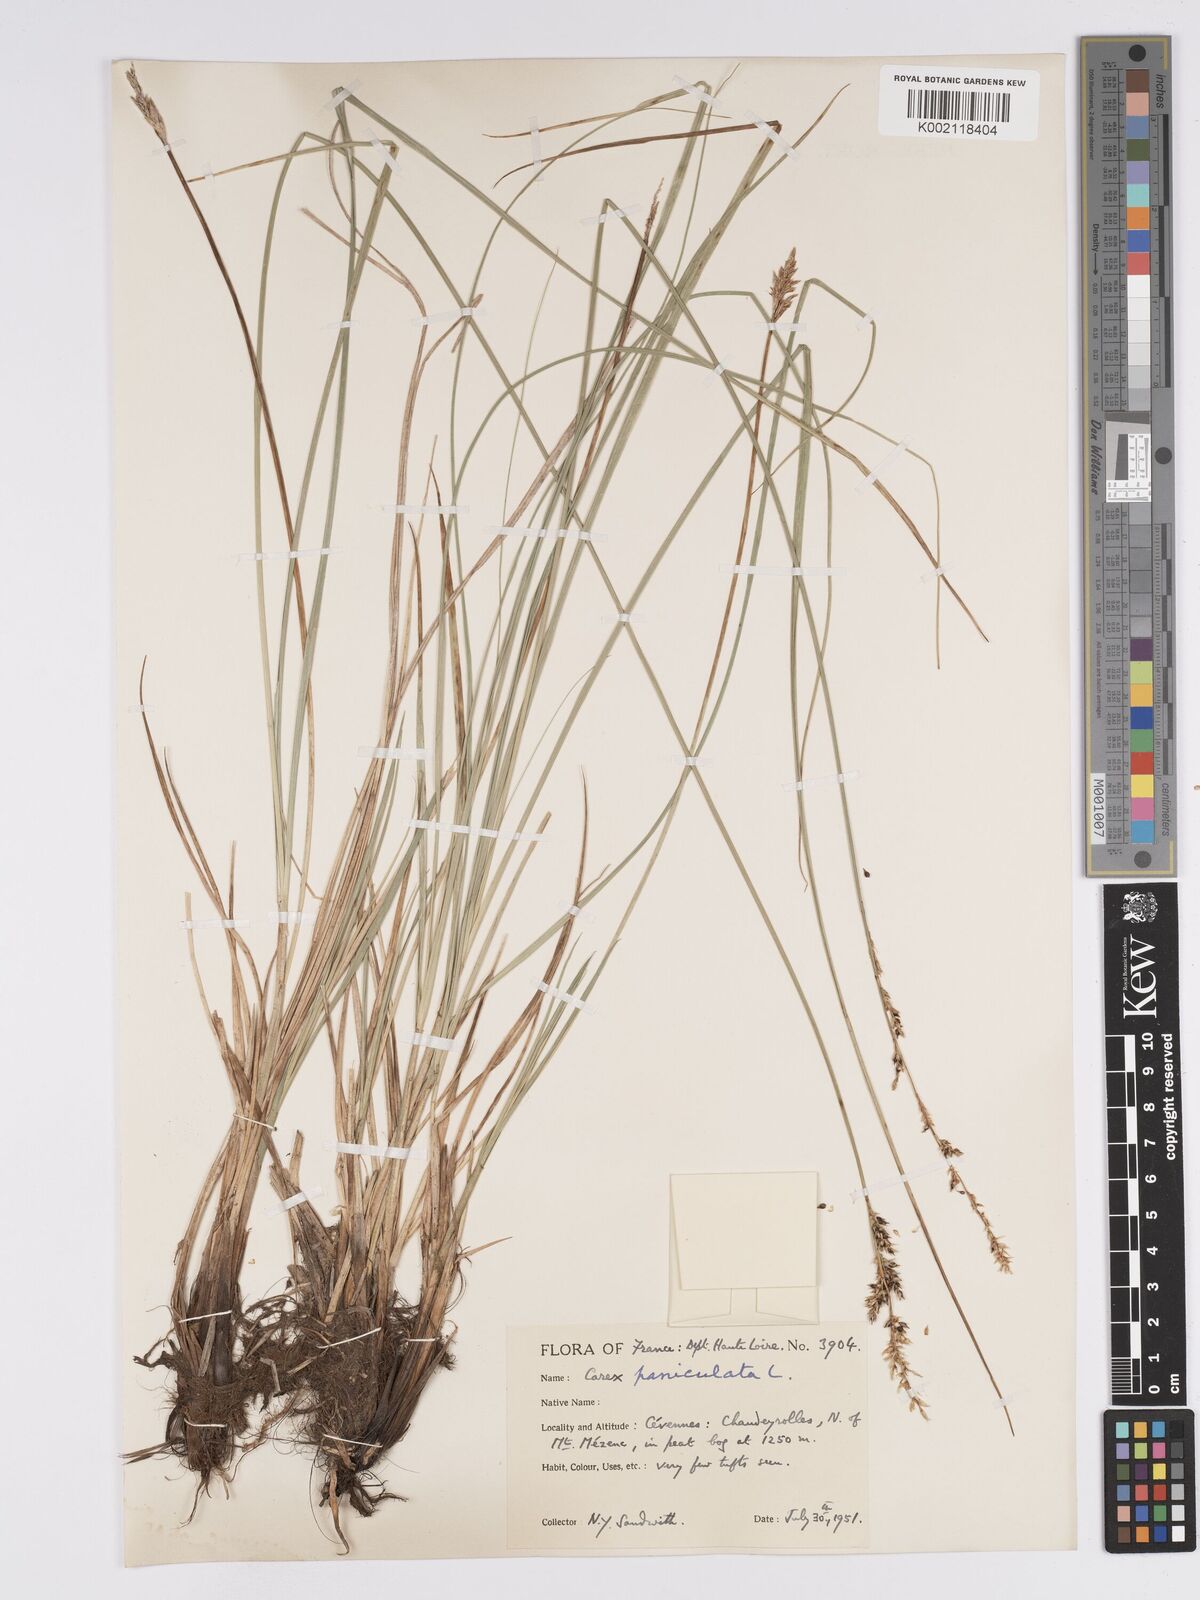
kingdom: Plantae
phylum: Tracheophyta
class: Liliopsida
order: Poales
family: Cyperaceae
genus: Carex
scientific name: Carex paniculata
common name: Greater tussock-sedge
